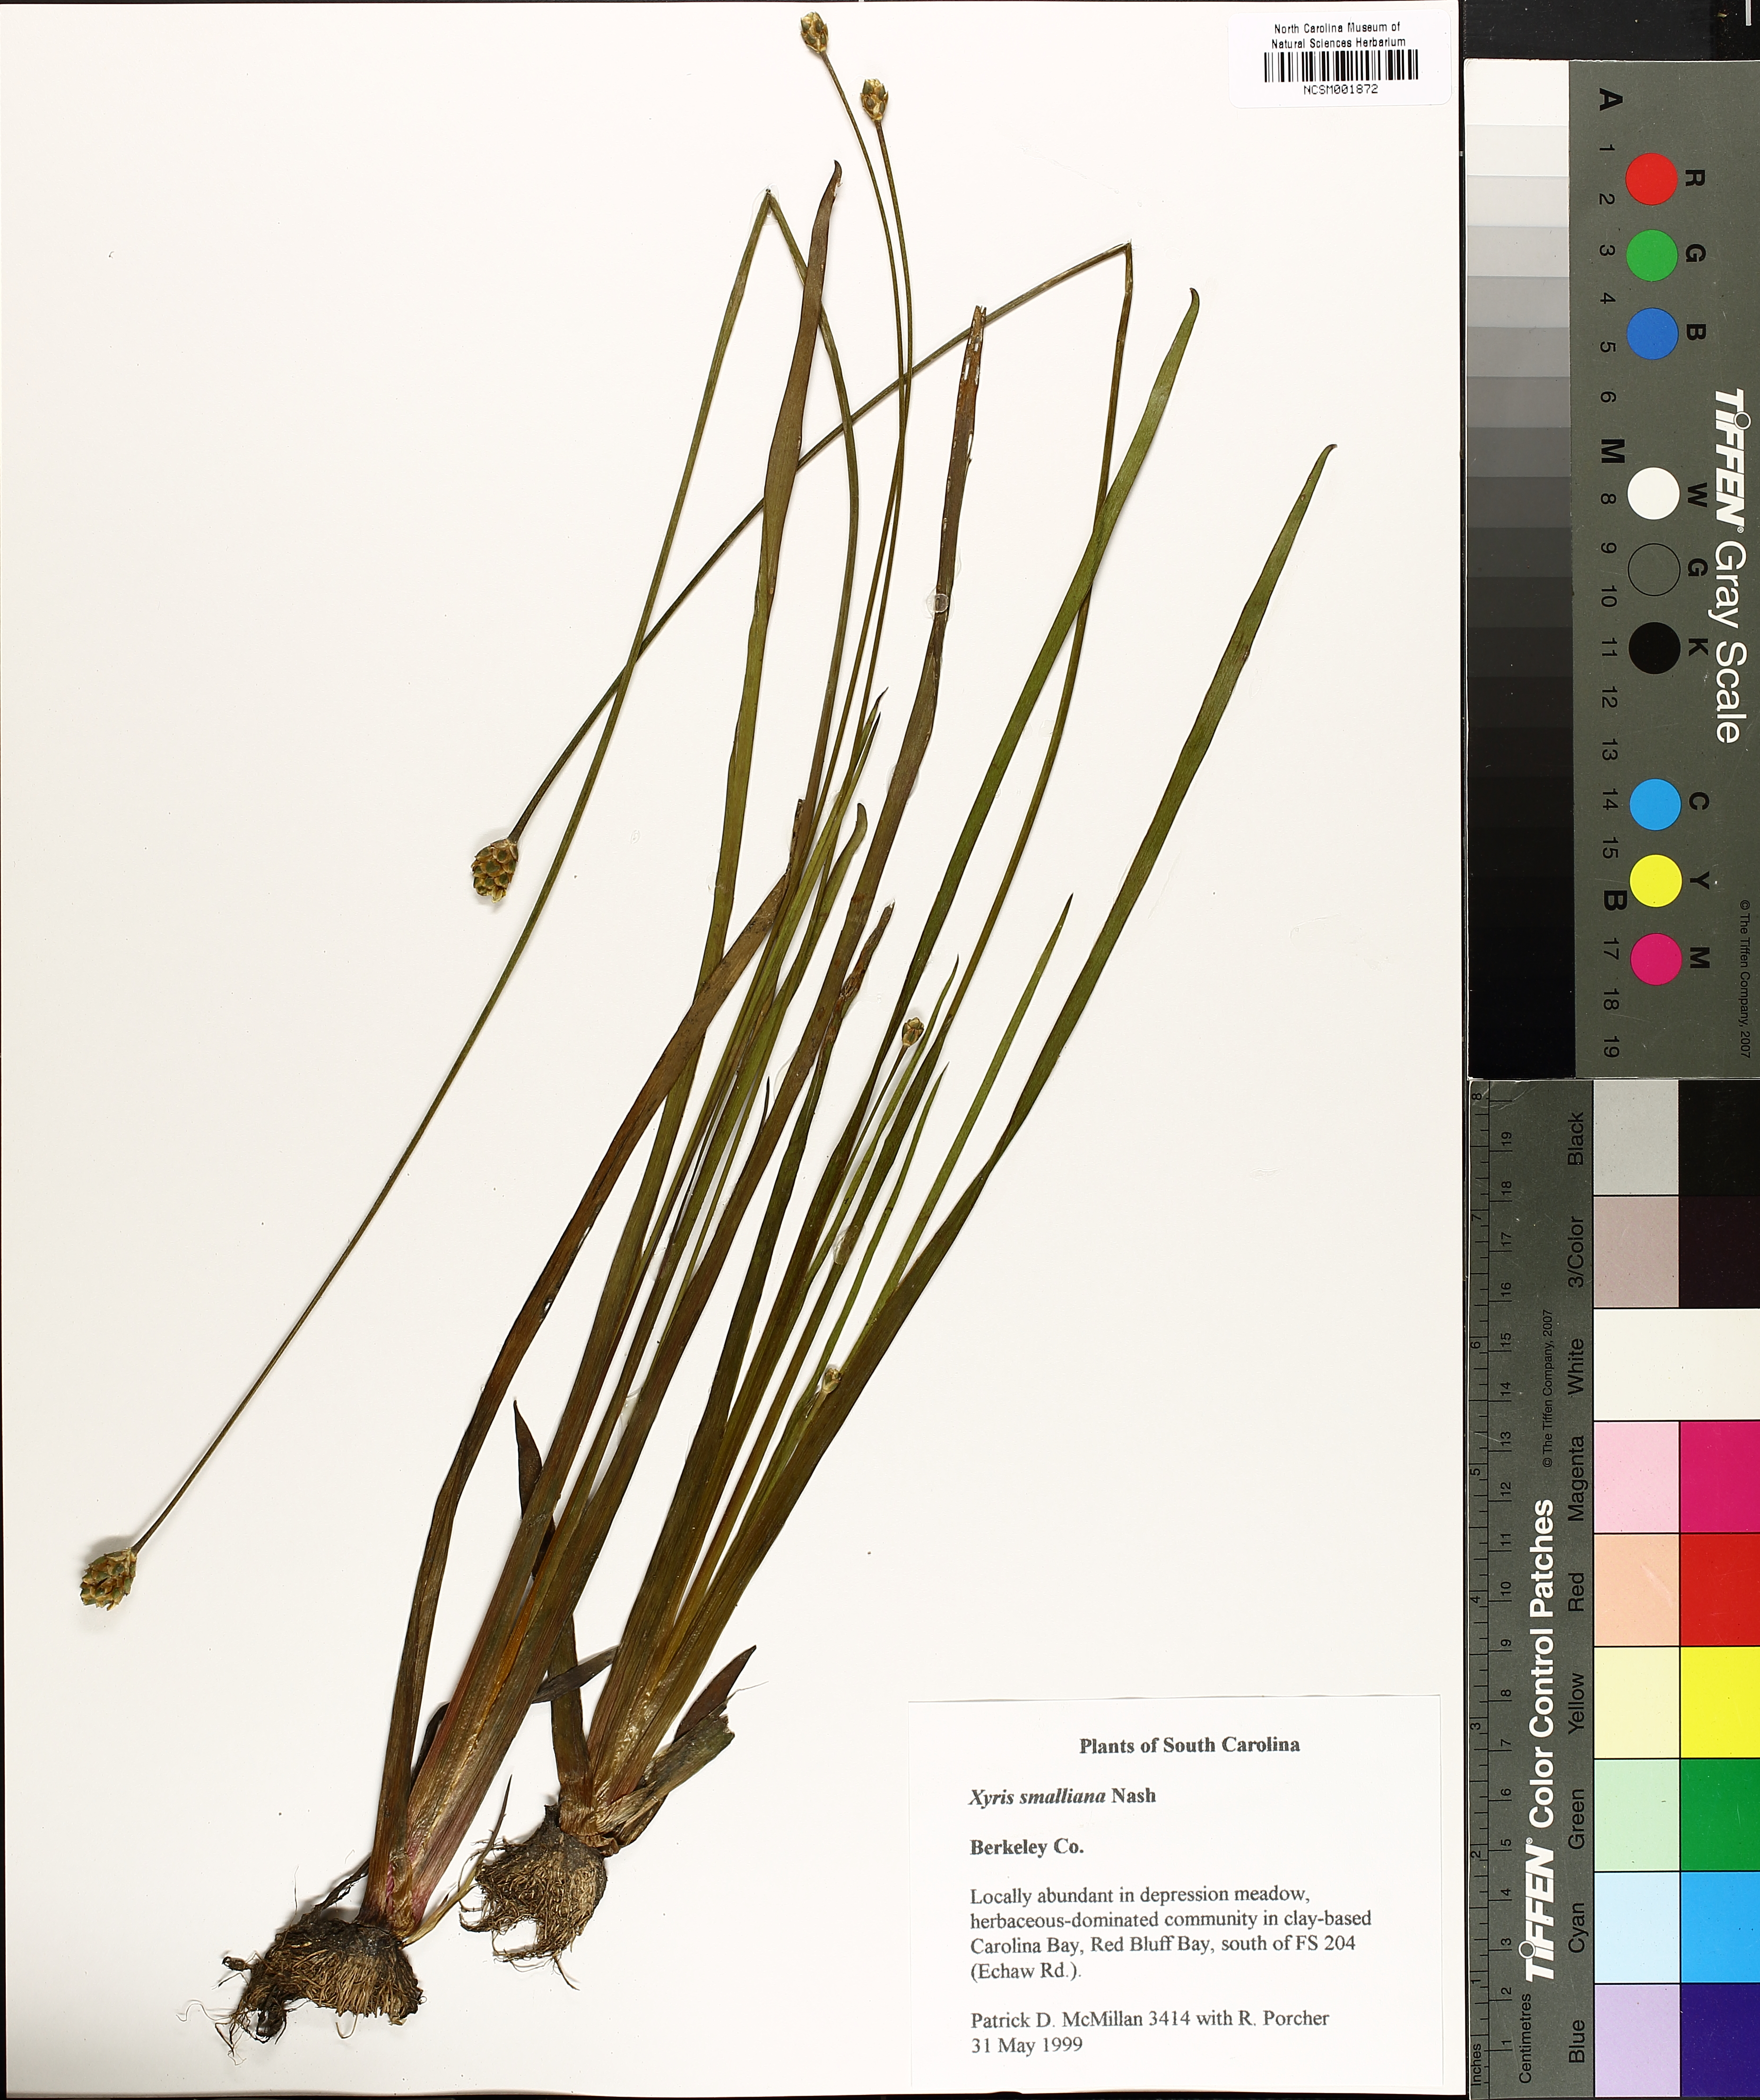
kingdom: Plantae
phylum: Tracheophyta
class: Liliopsida
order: Poales
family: Xyridaceae
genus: Xyris
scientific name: Xyris smalliana
